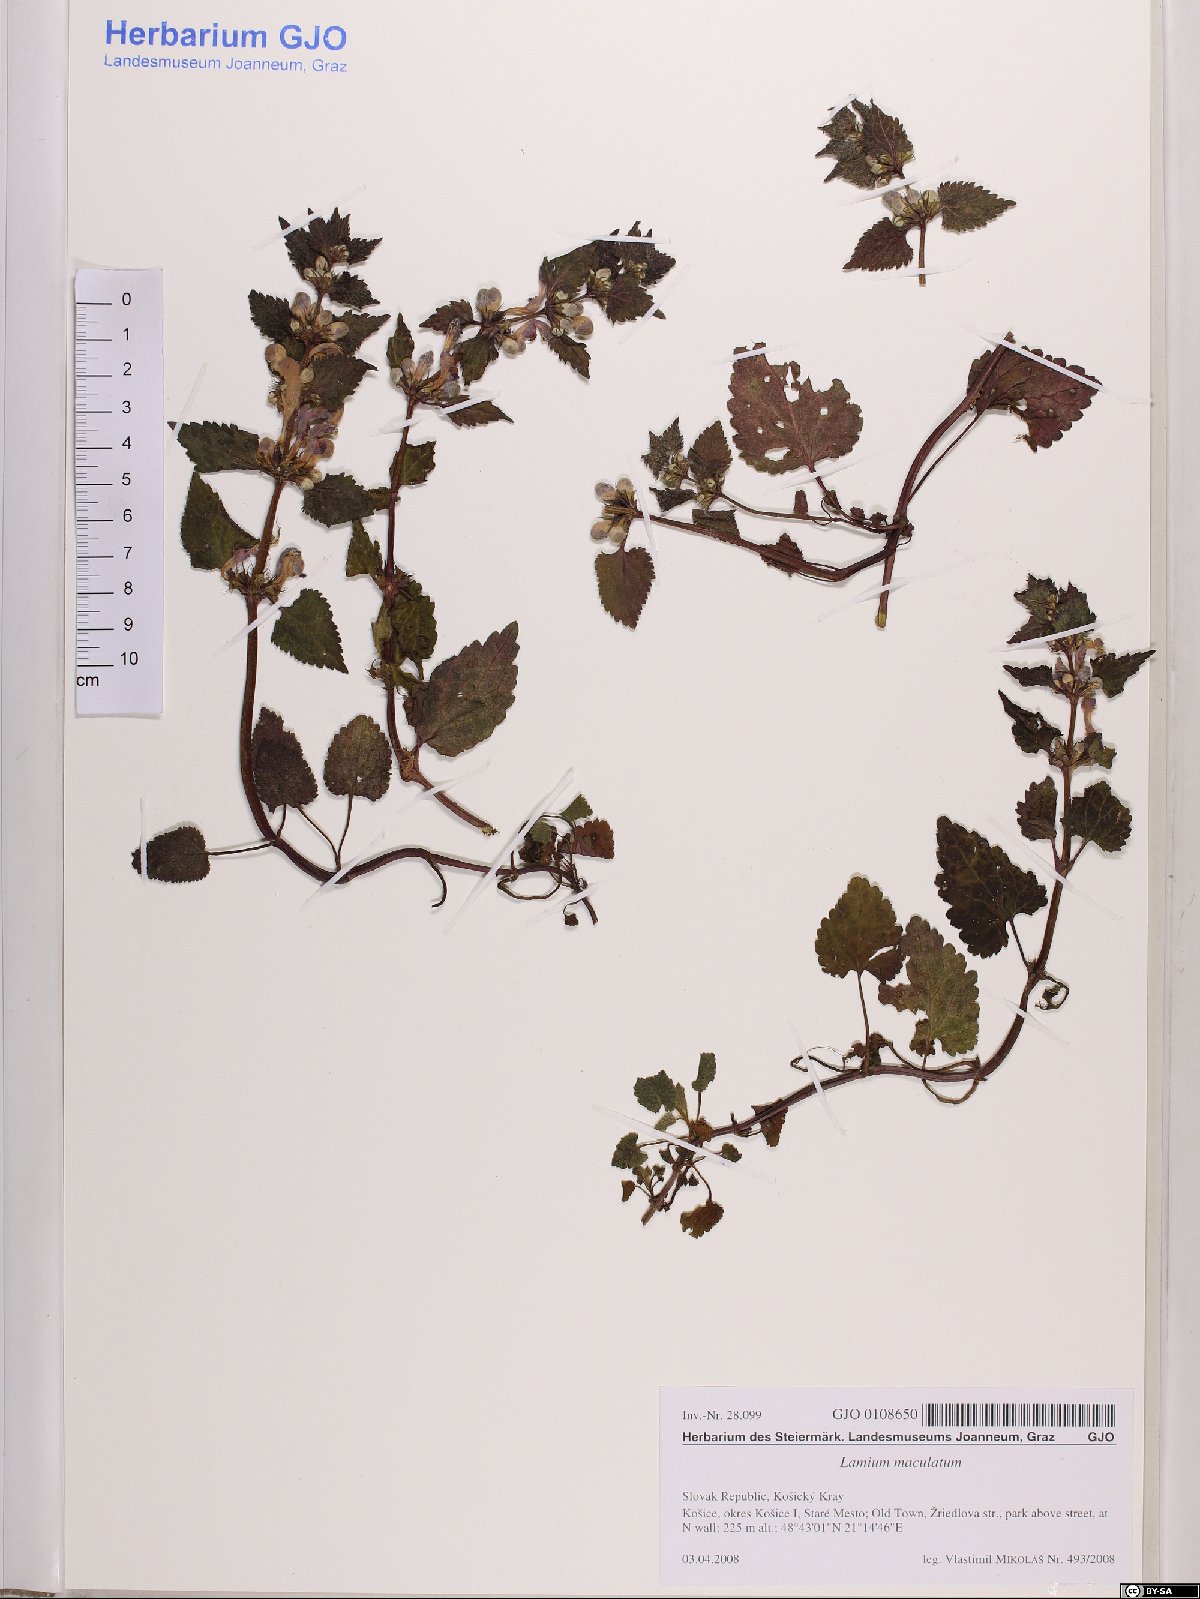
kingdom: Plantae
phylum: Tracheophyta
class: Magnoliopsida
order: Lamiales
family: Lamiaceae
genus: Lamium
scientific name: Lamium maculatum
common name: Spotted dead-nettle
